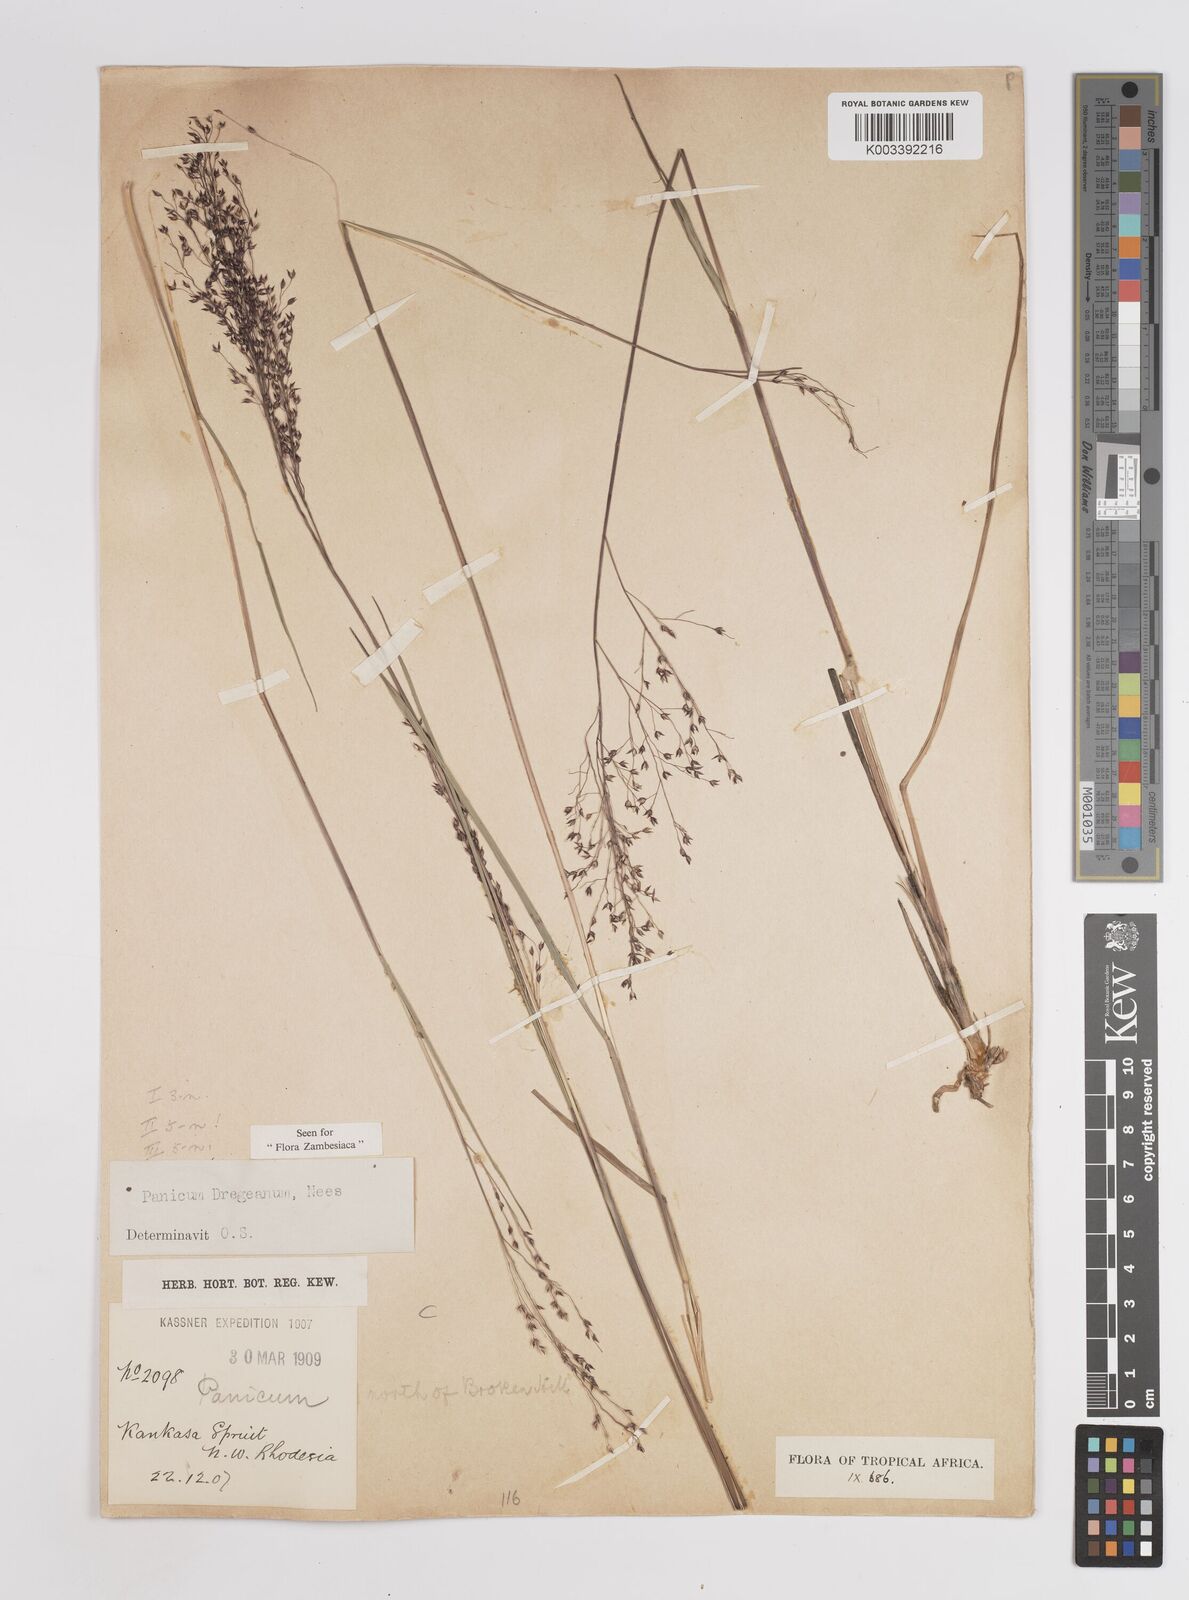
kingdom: Plantae
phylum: Tracheophyta
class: Liliopsida
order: Poales
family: Poaceae
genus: Panicum
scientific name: Panicum dregeanum
